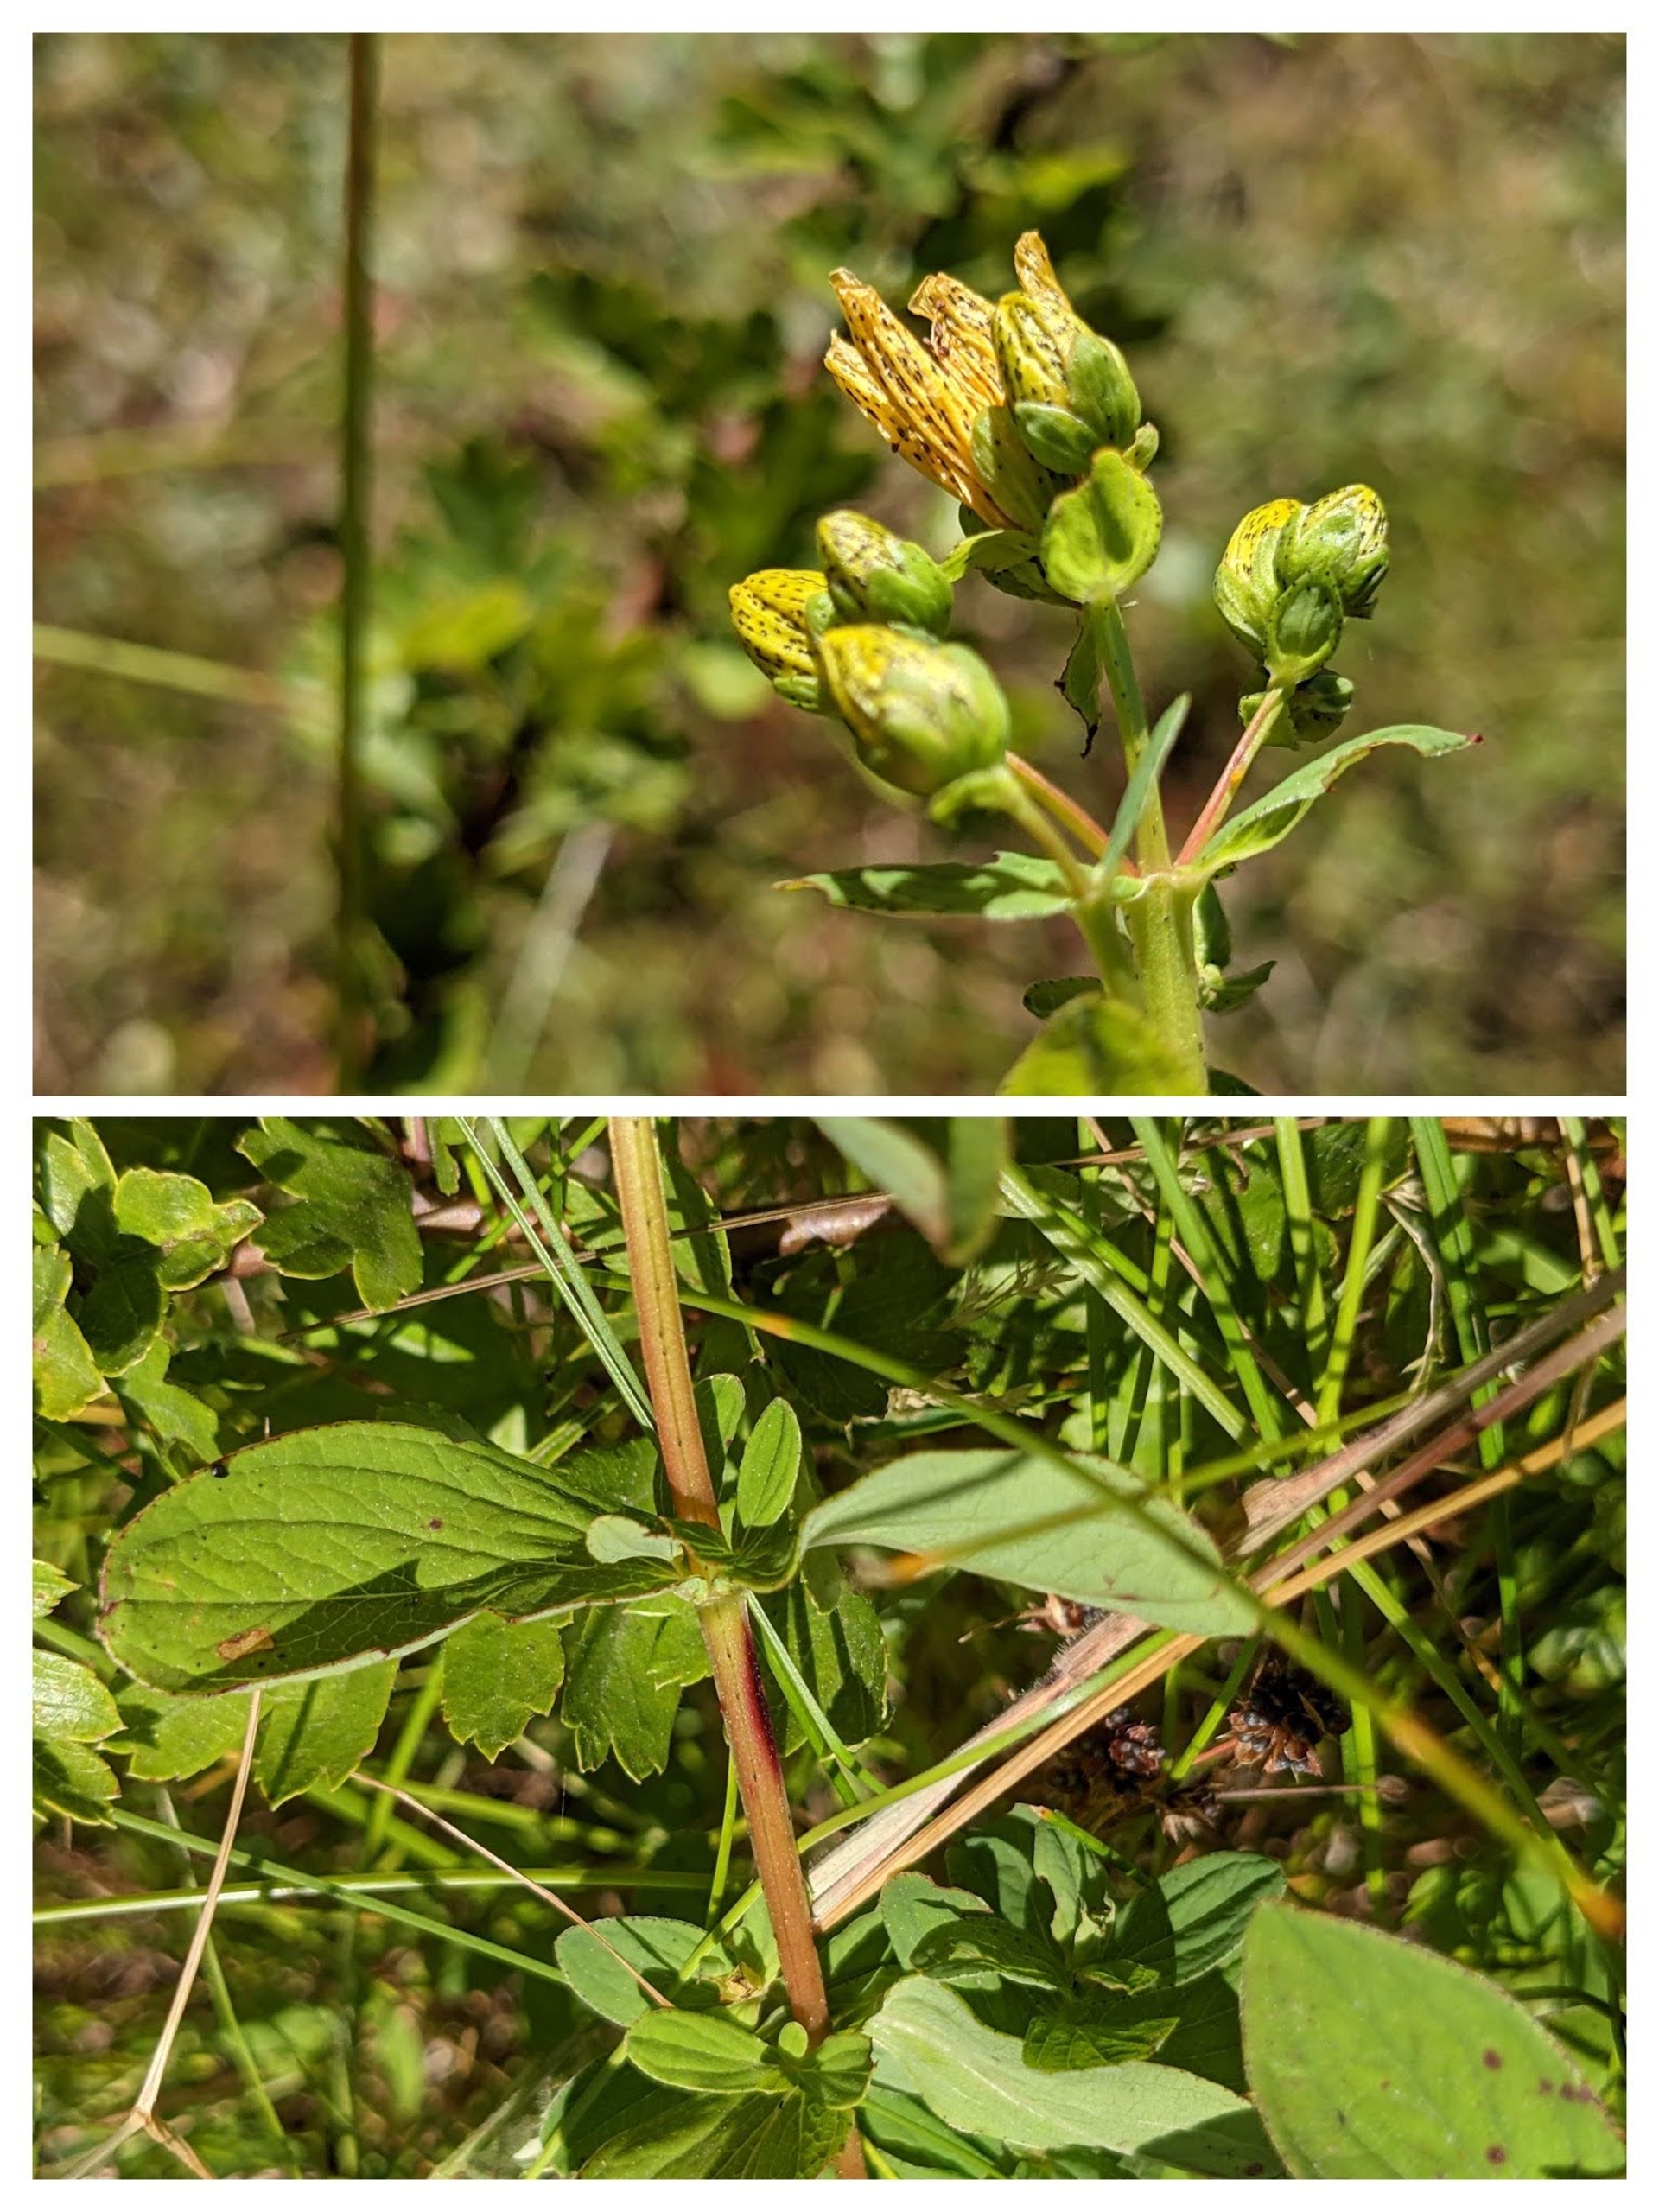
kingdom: Plantae
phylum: Tracheophyta
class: Magnoliopsida
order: Malpighiales
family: Hypericaceae
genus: Hypericum
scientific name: Hypericum maculatum
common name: Kantet perikon
